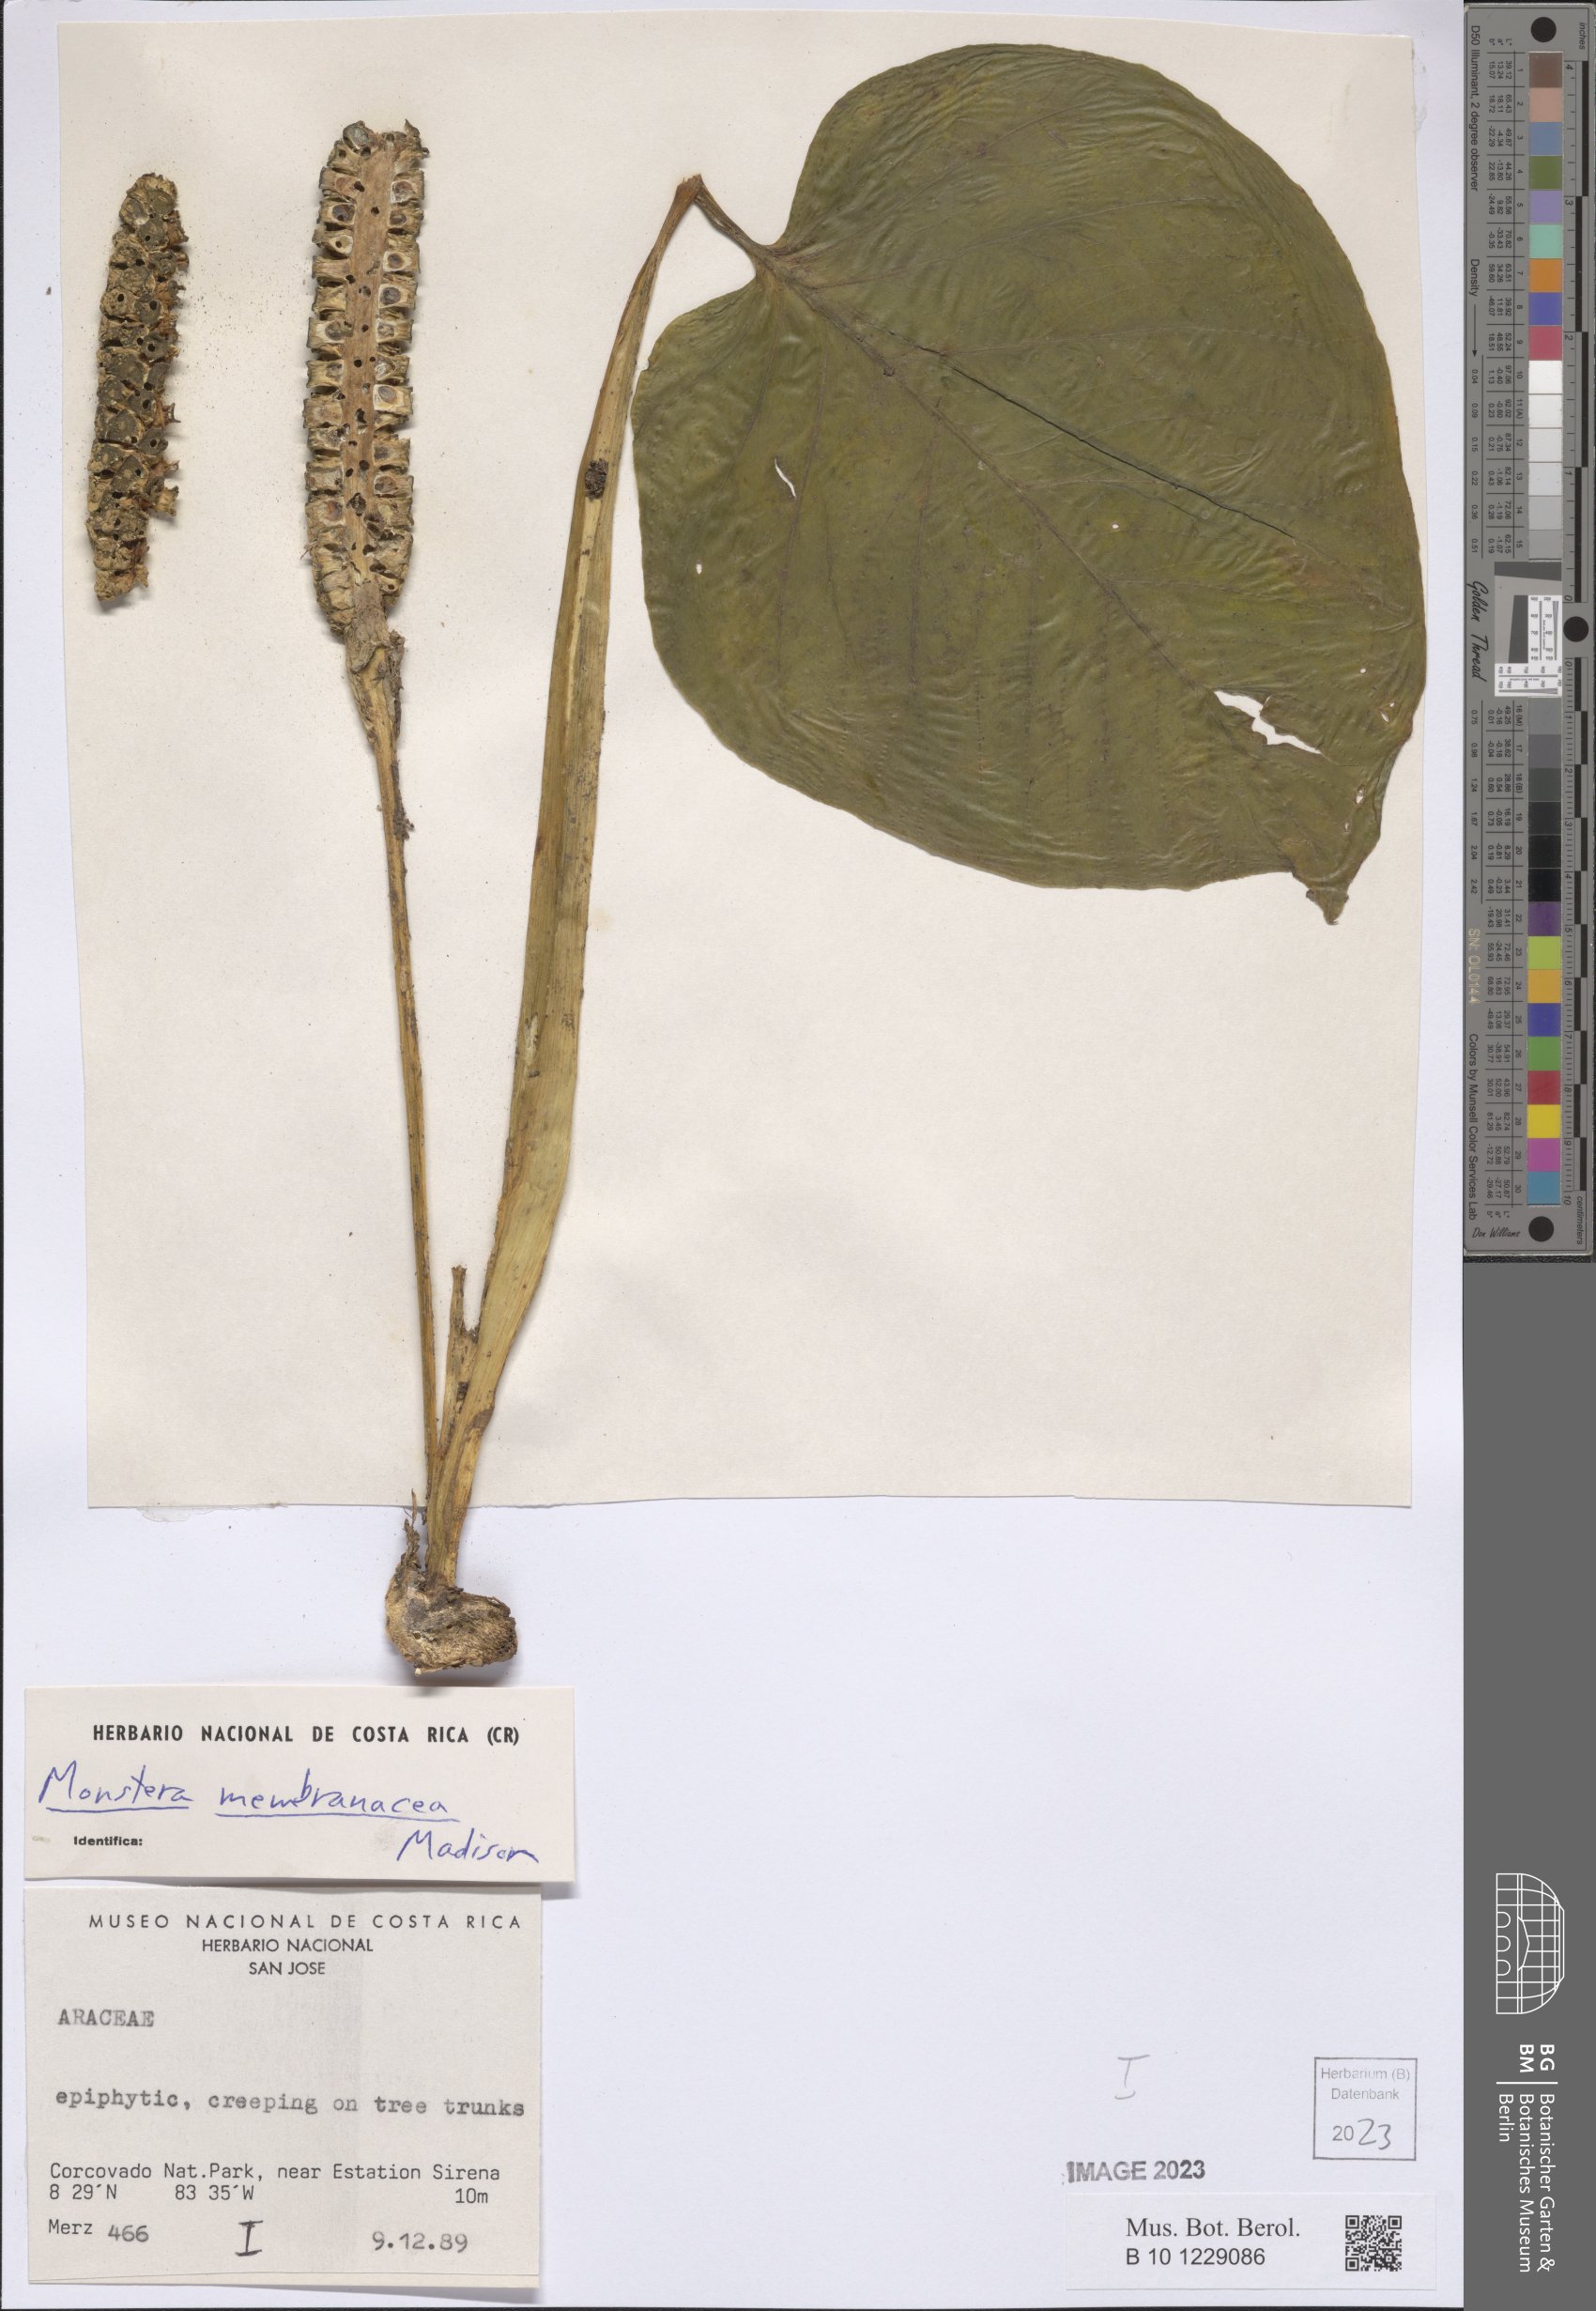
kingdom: Plantae
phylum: Tracheophyta
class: Liliopsida
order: Alismatales
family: Araceae
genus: Monstera
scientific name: Monstera membranacea
